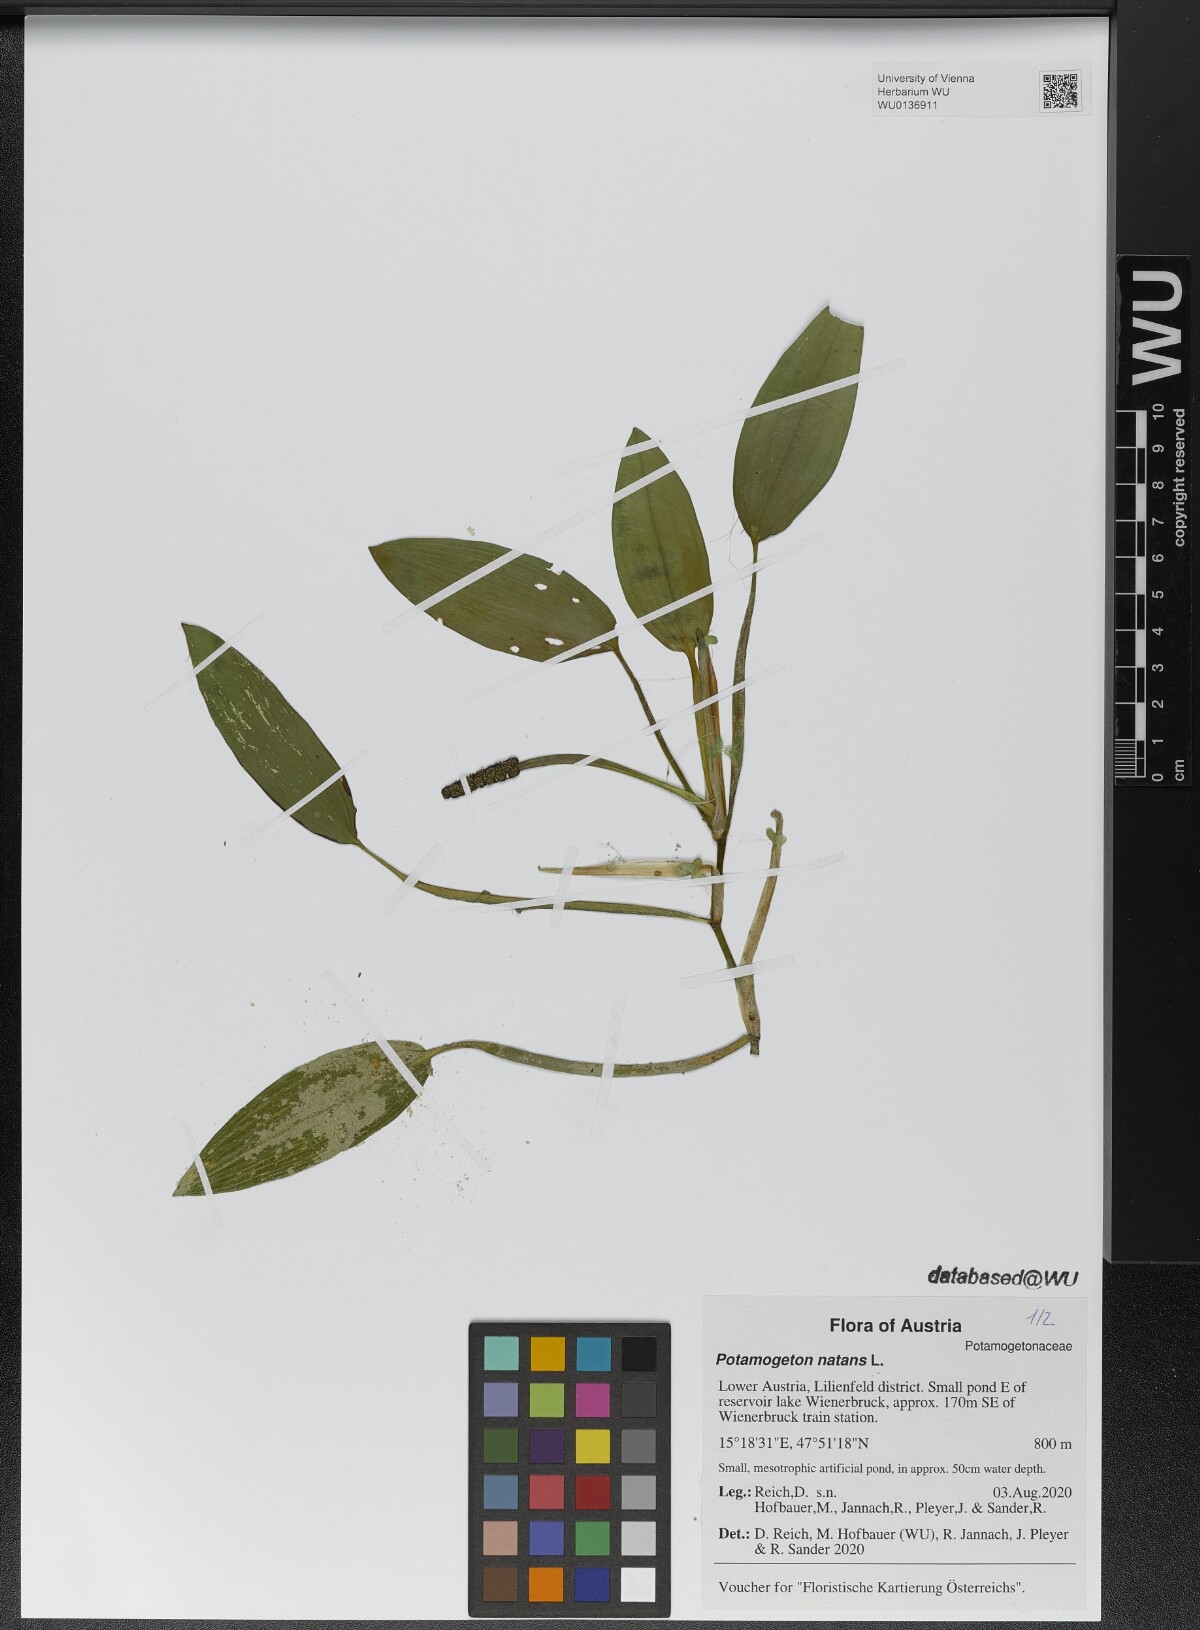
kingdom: Plantae
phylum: Tracheophyta
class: Liliopsida
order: Alismatales
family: Potamogetonaceae
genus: Potamogeton
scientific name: Potamogeton natans
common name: Broad-leaved pondweed
